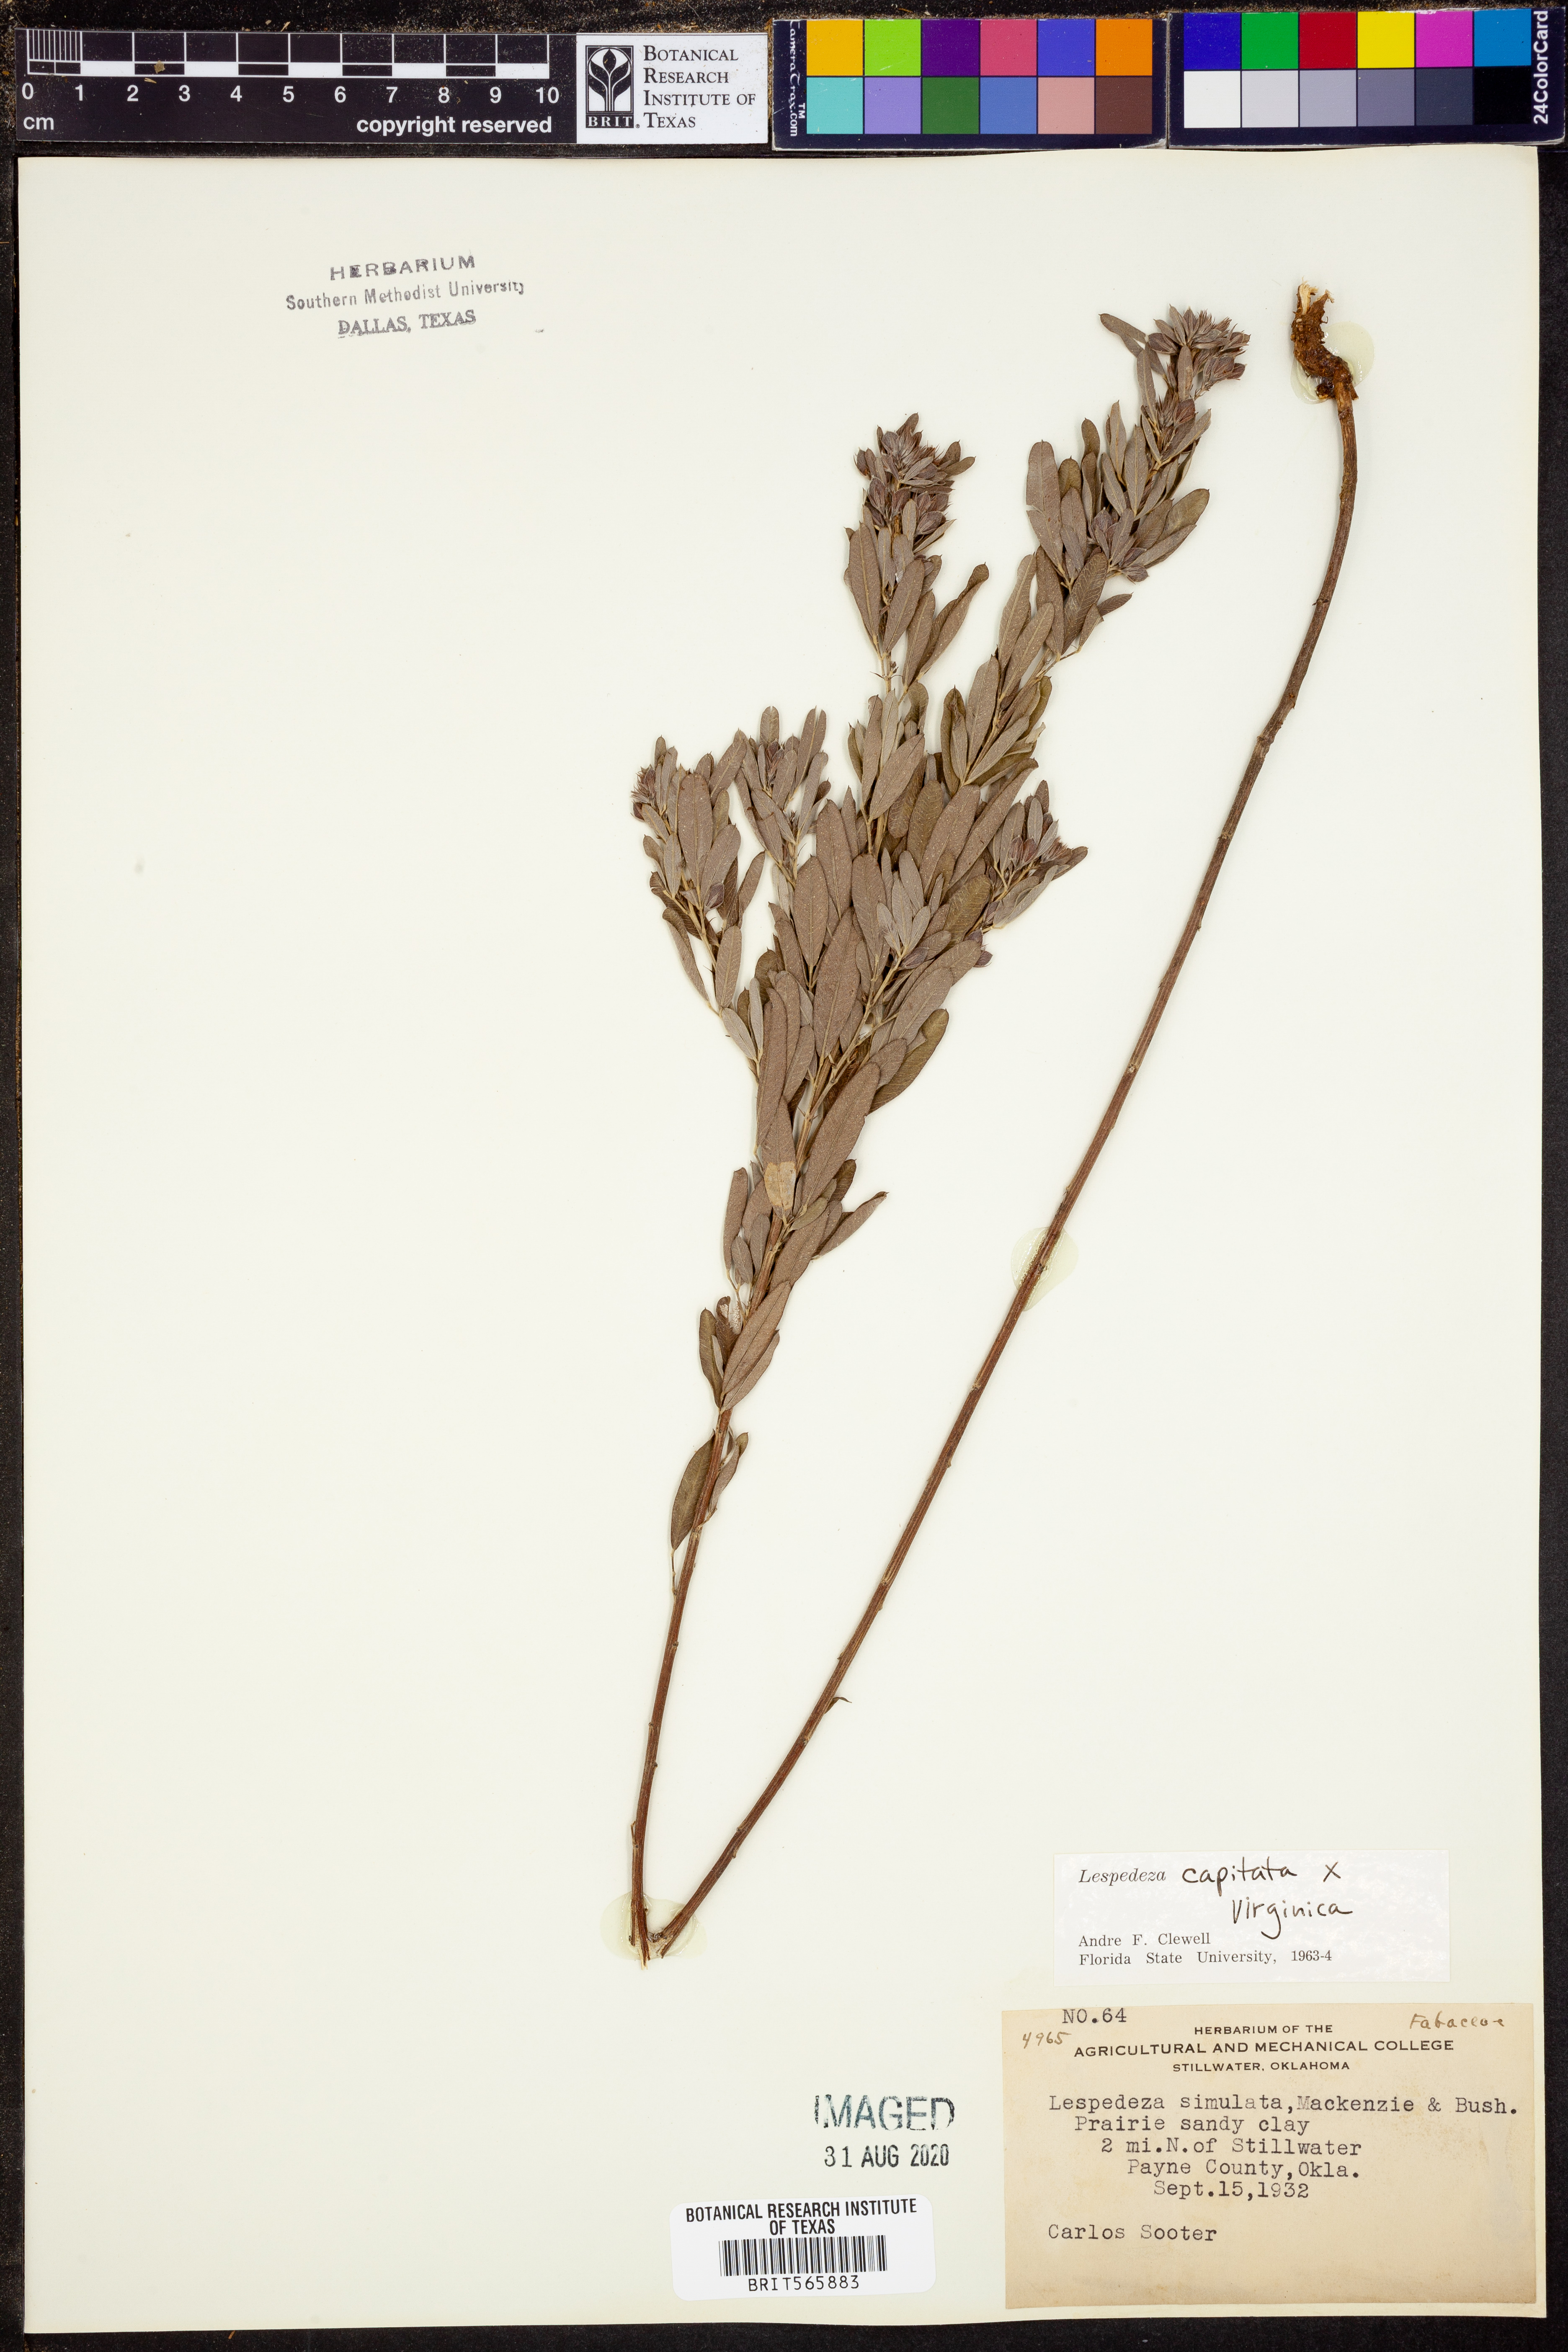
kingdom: Plantae
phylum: Tracheophyta
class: Magnoliopsida
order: Fabales
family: Fabaceae
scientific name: Fabaceae
